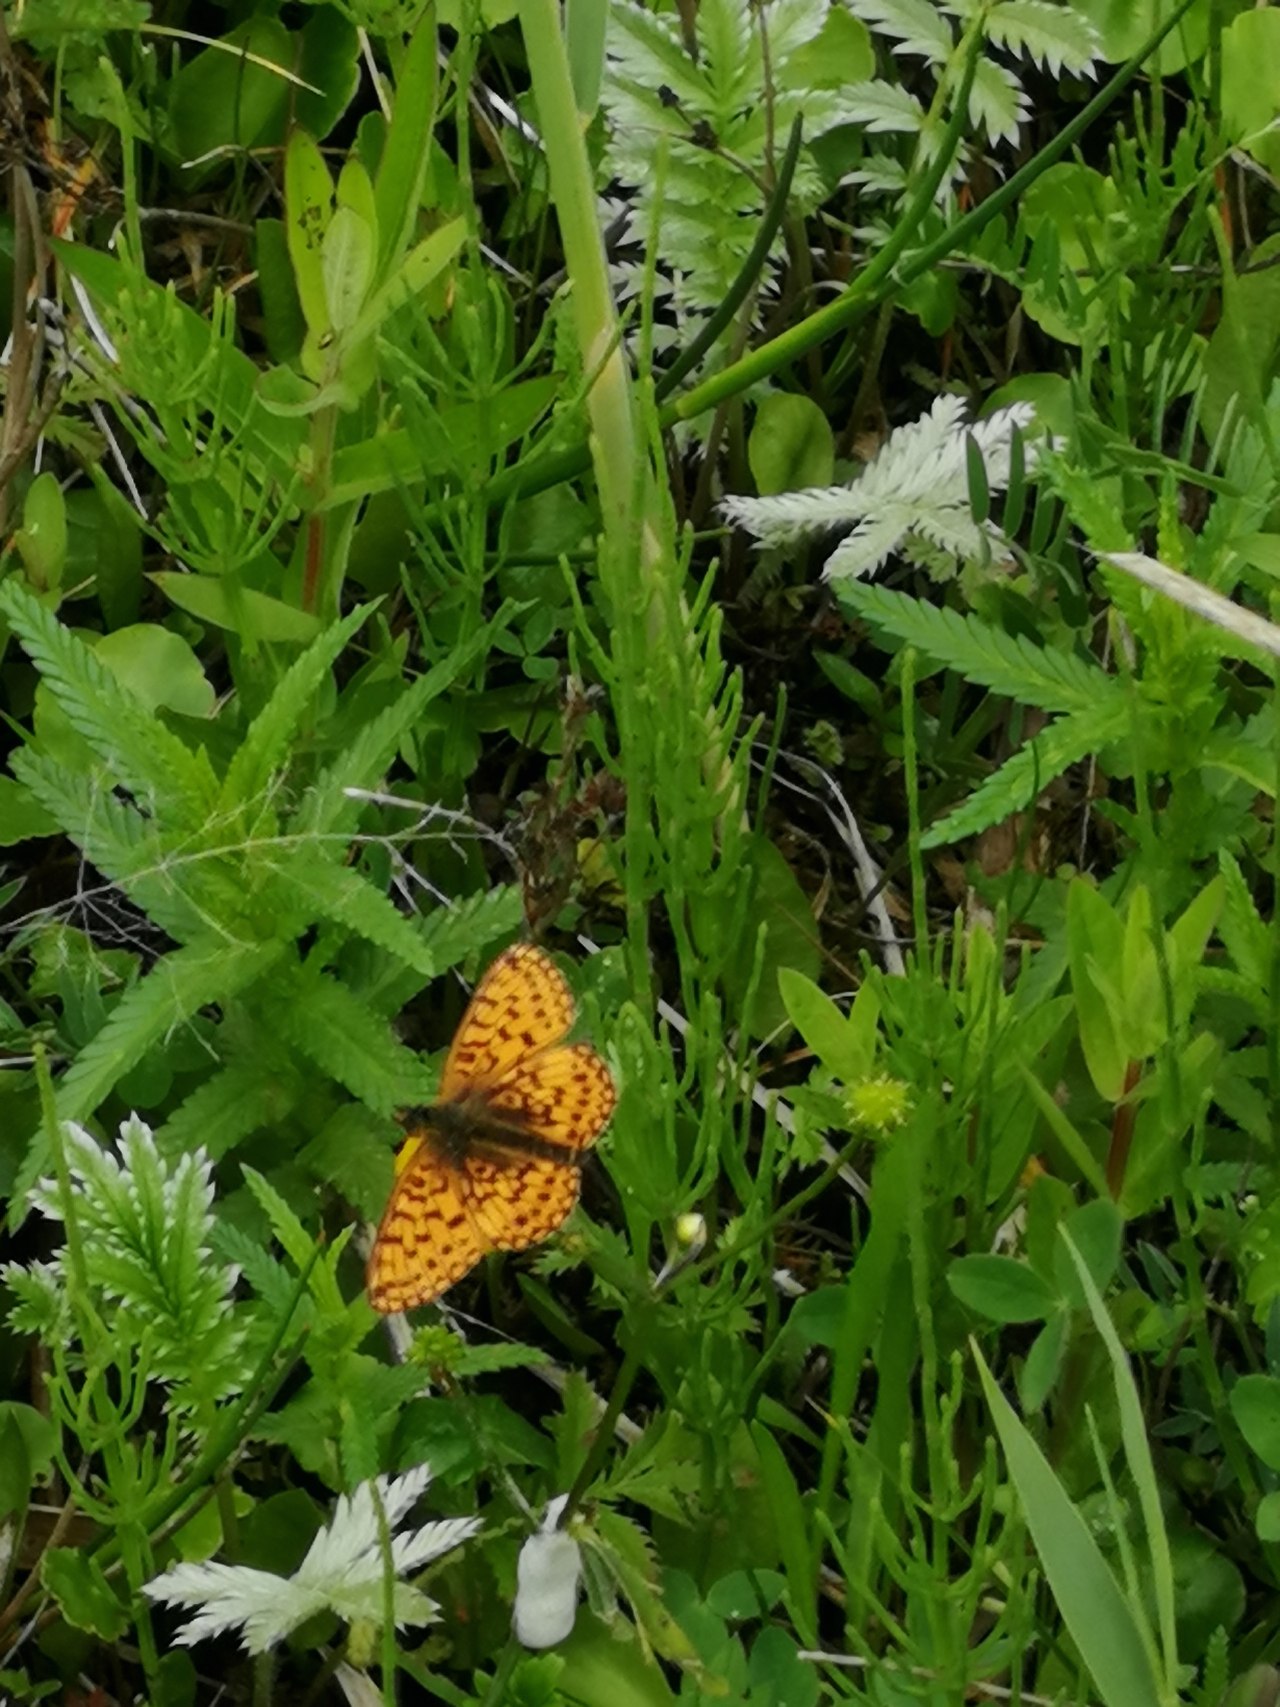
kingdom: Animalia
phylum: Arthropoda
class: Insecta
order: Lepidoptera
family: Nymphalidae
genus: Boloria
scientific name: Boloria selene
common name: Brunlig perlemorsommerfugl
